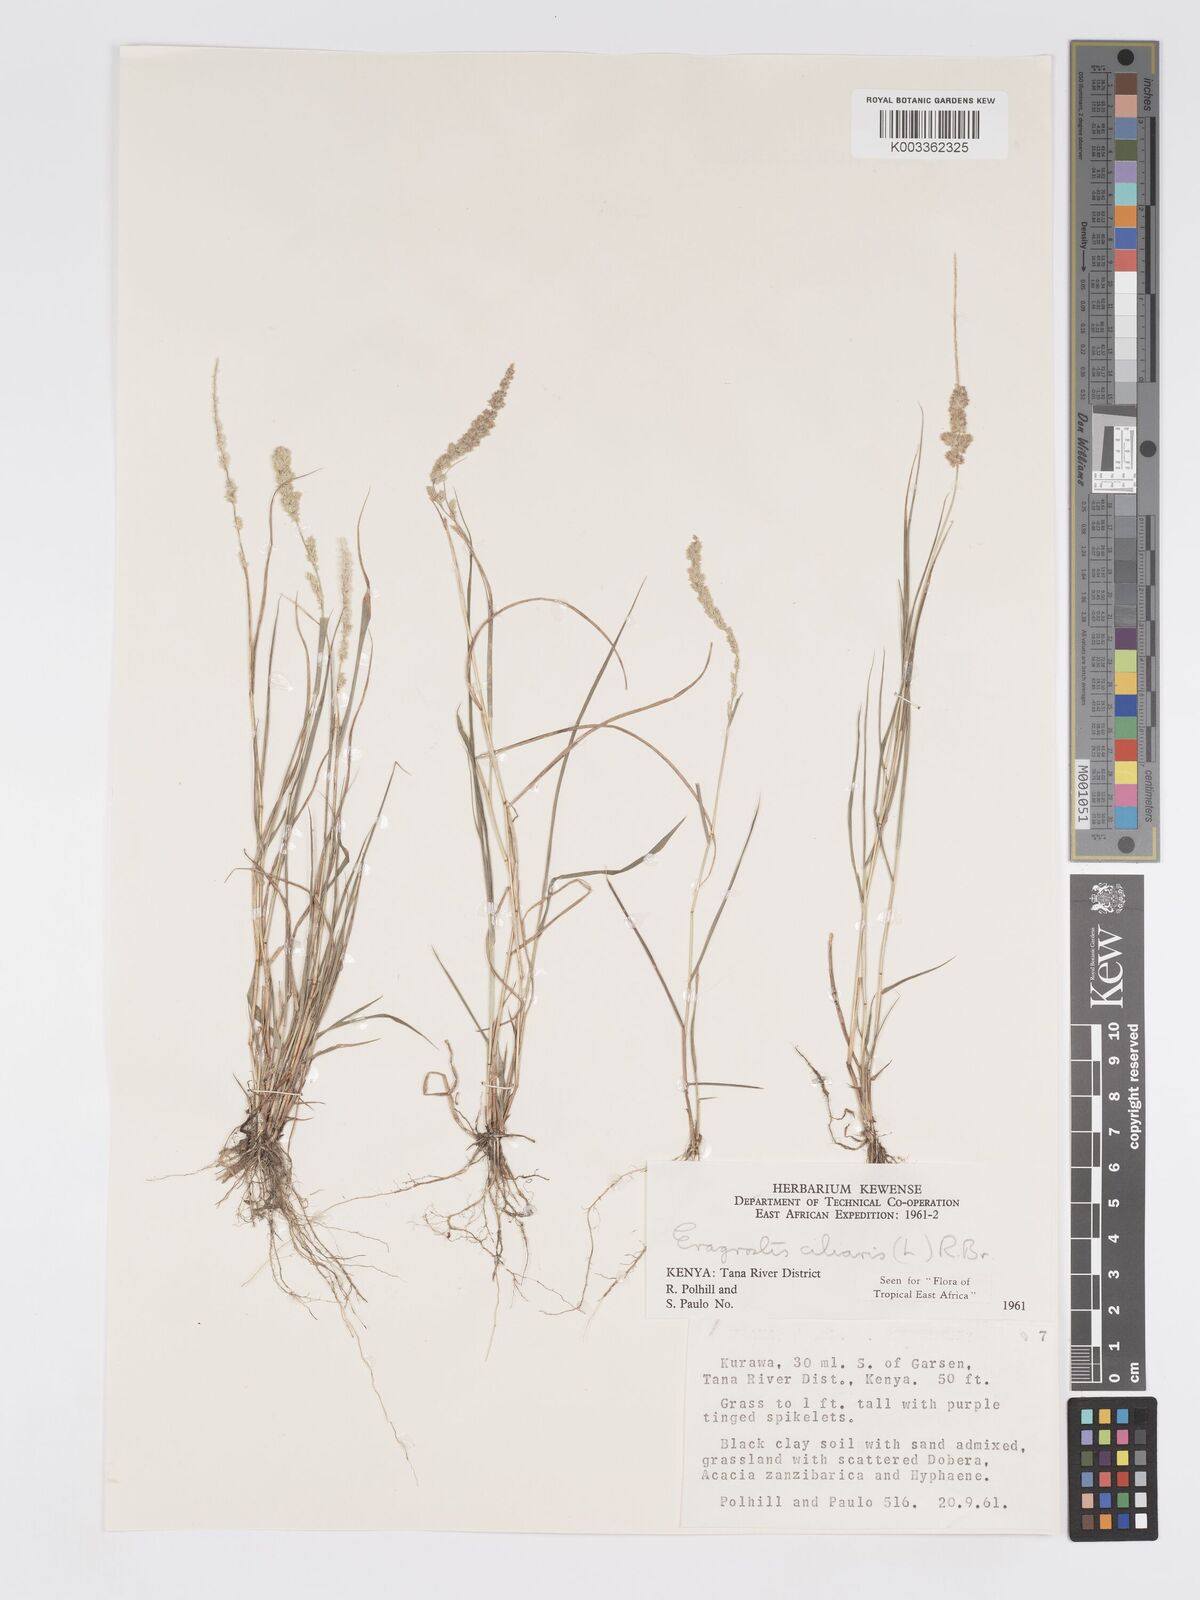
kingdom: Plantae
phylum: Tracheophyta
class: Liliopsida
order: Poales
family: Poaceae
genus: Eragrostis
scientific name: Eragrostis ciliaris
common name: Gophertail lovegrass
